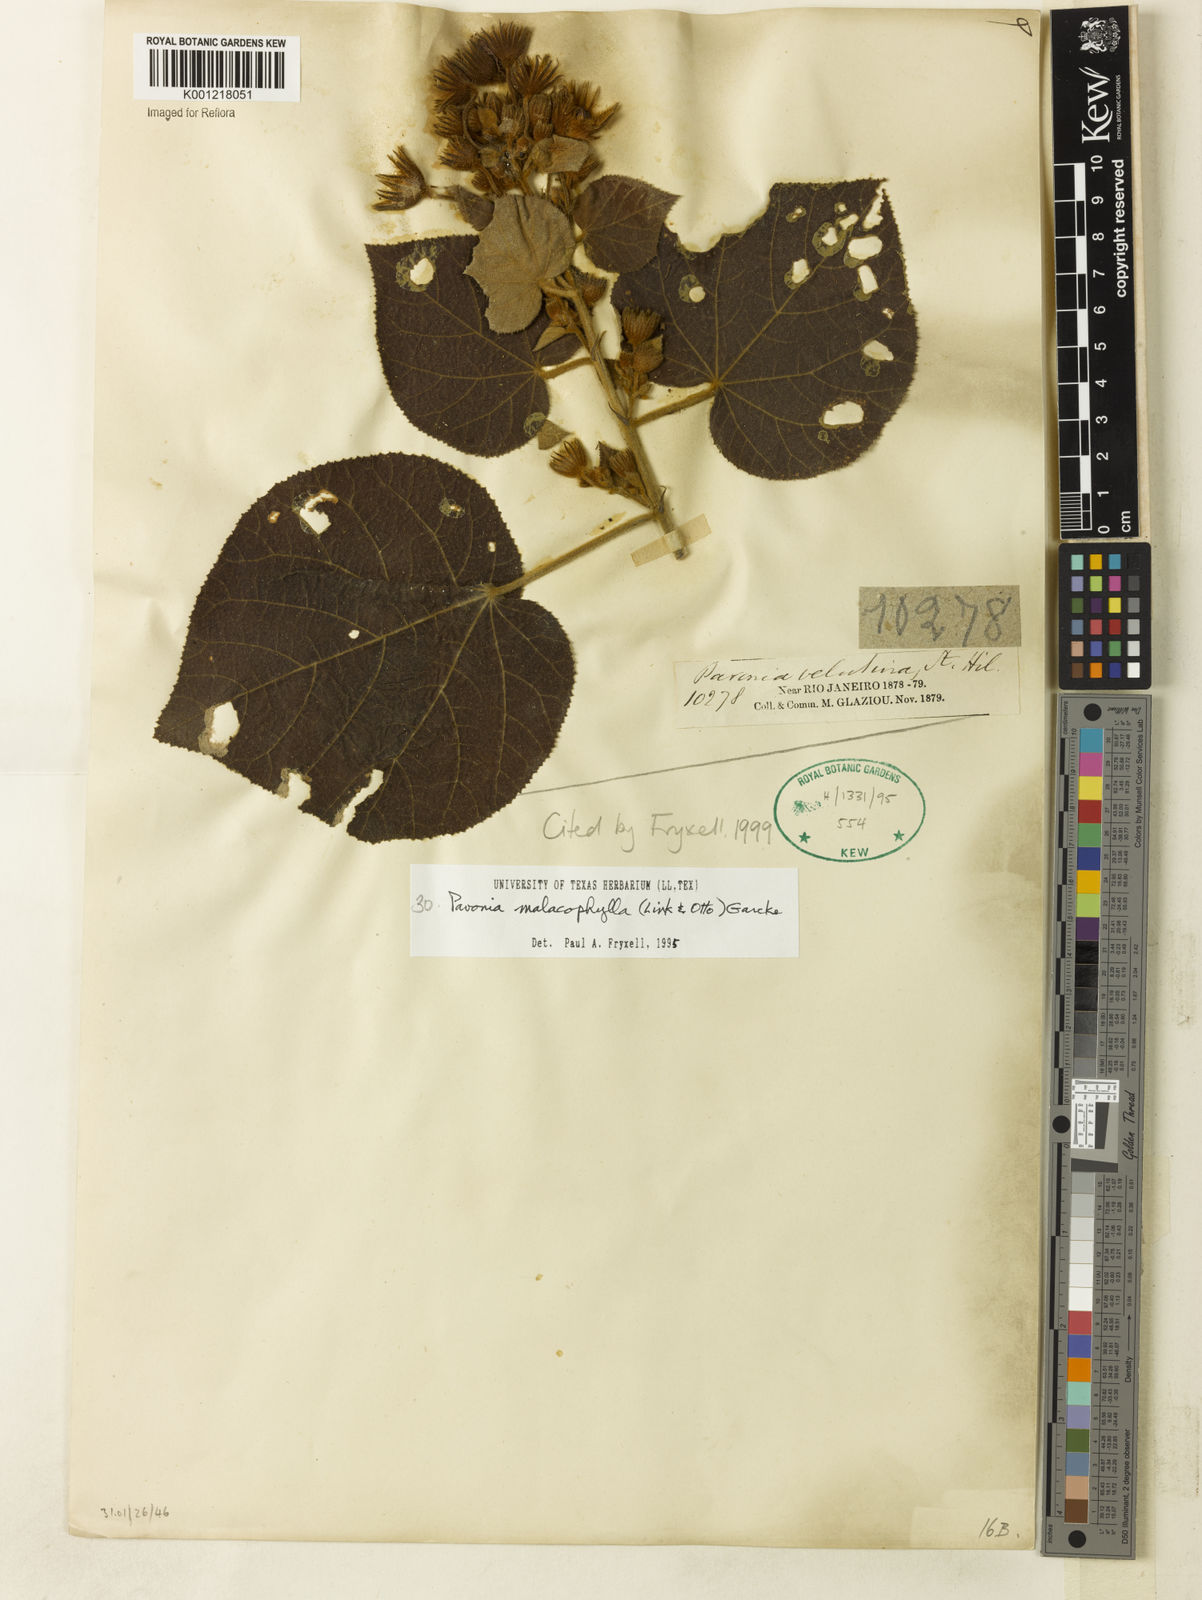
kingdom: Plantae
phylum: Tracheophyta
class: Magnoliopsida
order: Malvales
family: Malvaceae
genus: Pavonia
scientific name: Pavonia malacophylla
